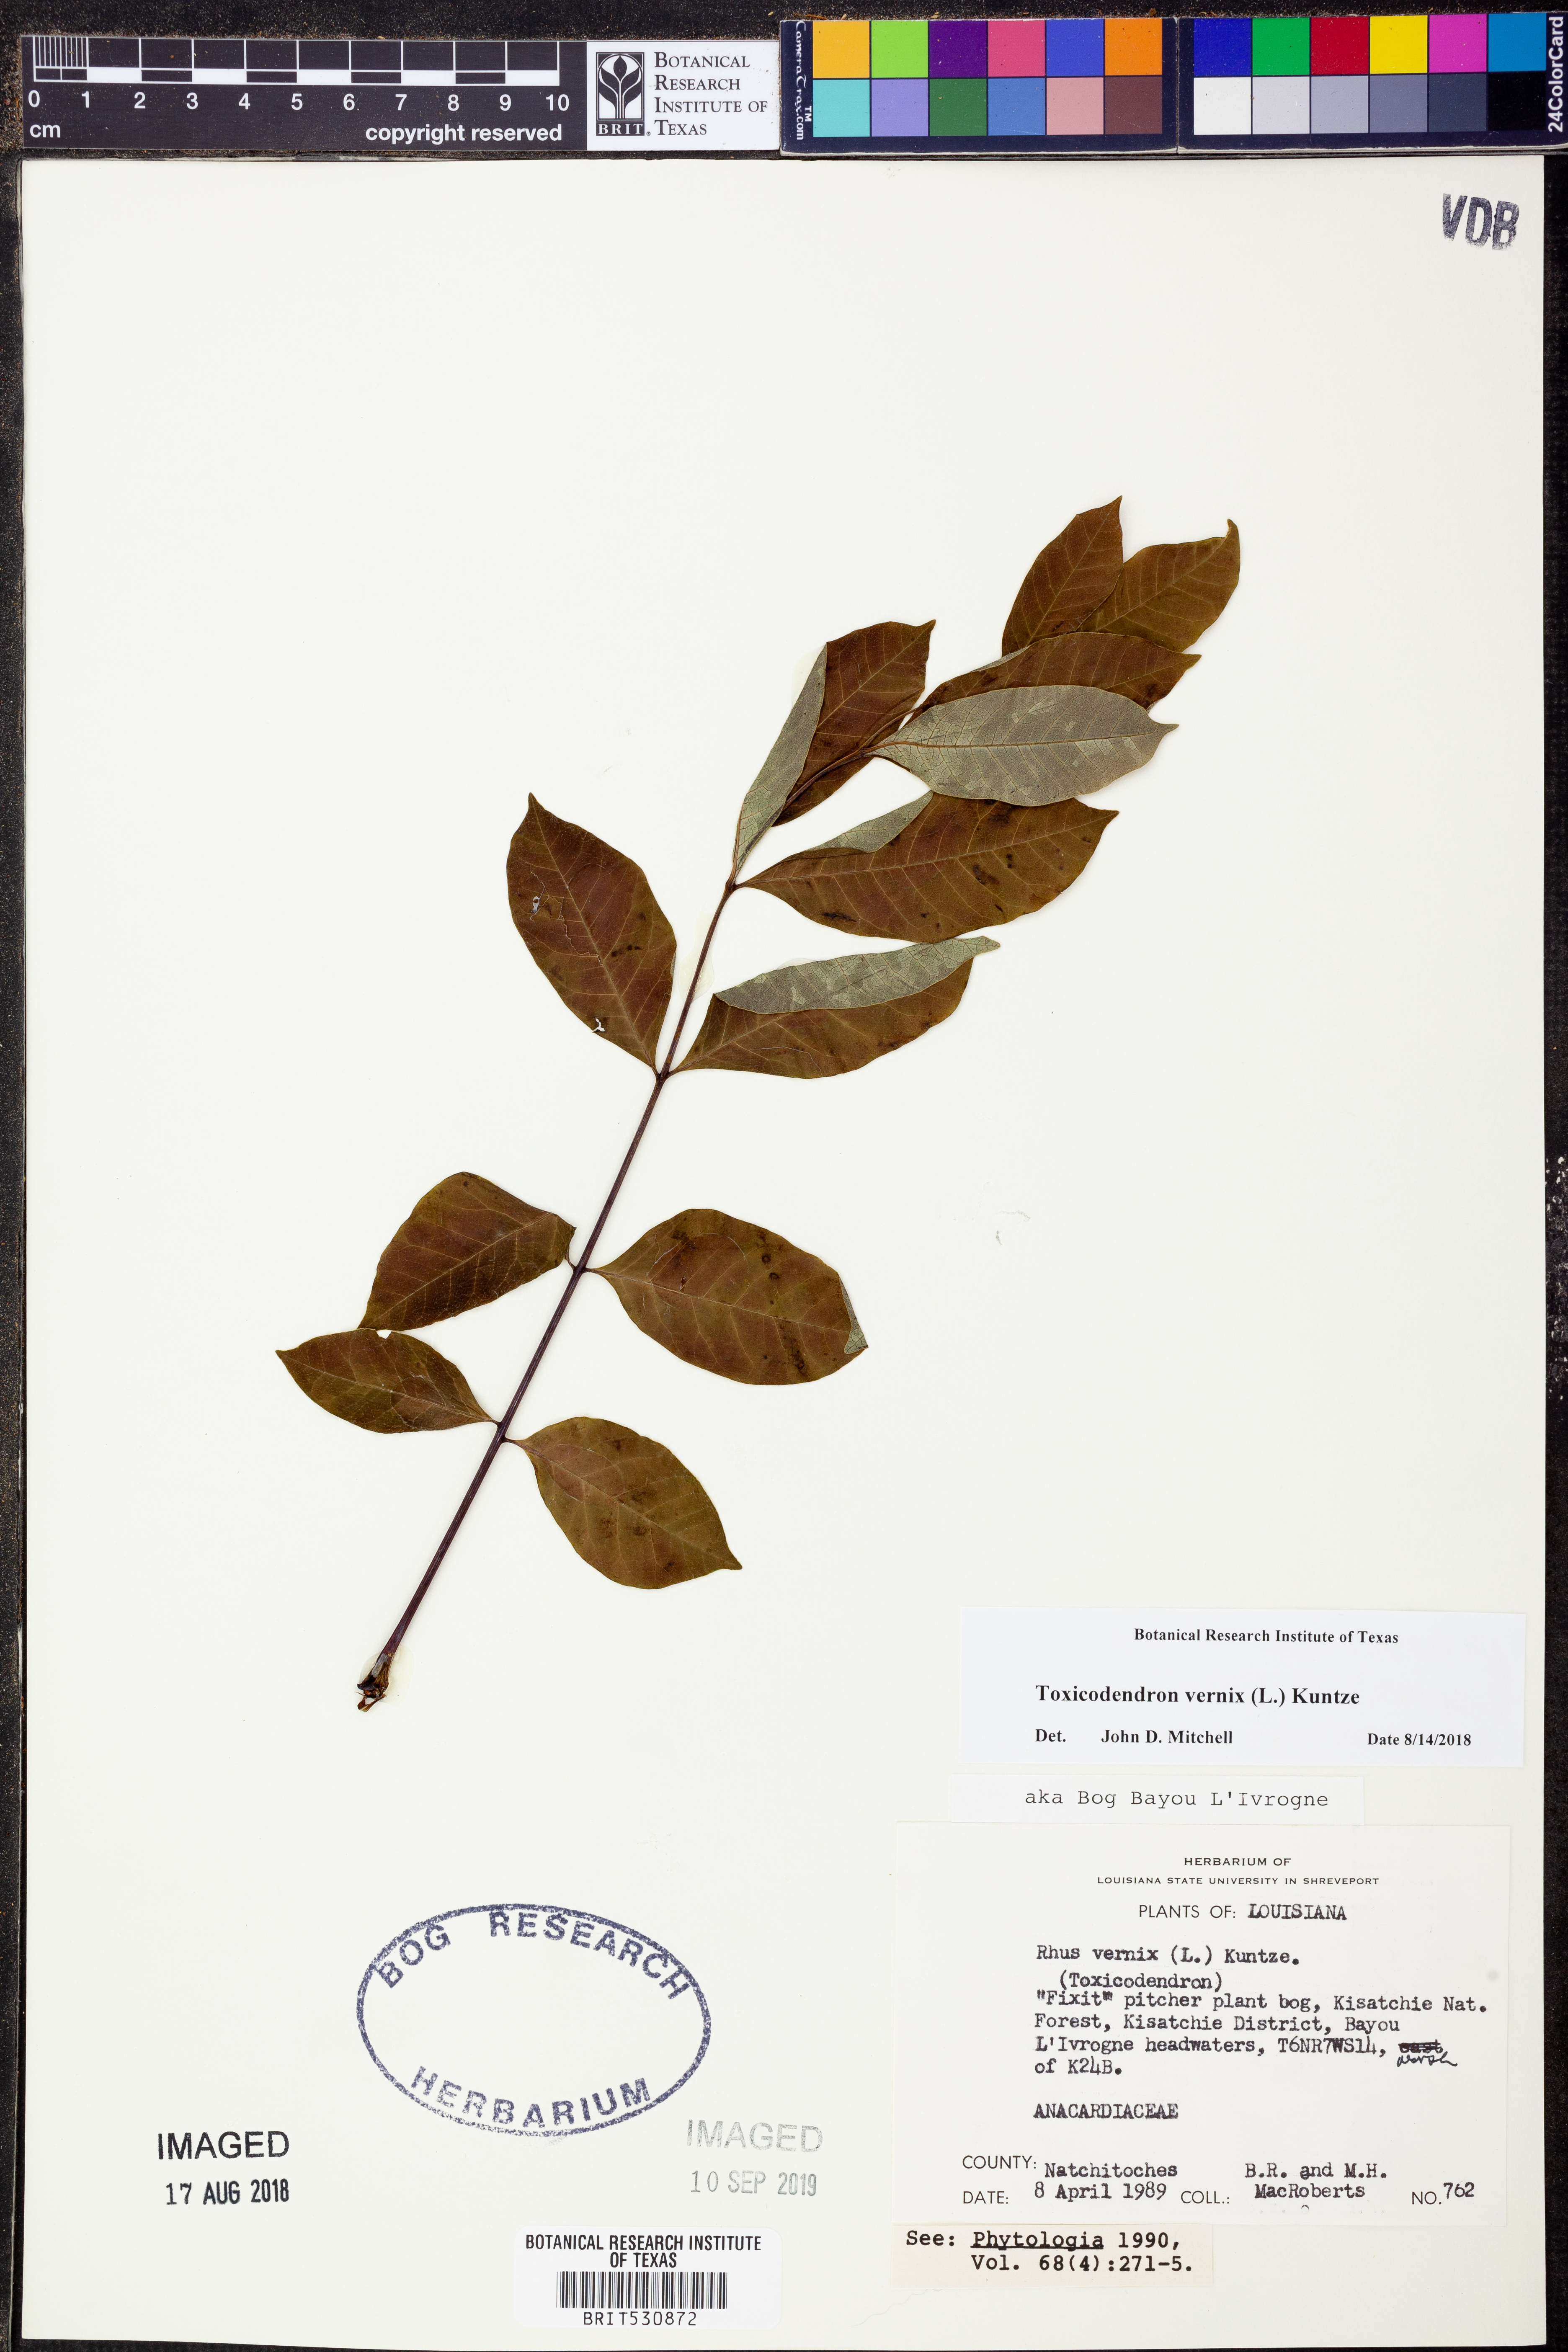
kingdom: Plantae
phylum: Tracheophyta
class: Magnoliopsida
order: Sapindales
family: Anacardiaceae
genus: Toxicodendron
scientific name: Toxicodendron vernix
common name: Poison sumac
